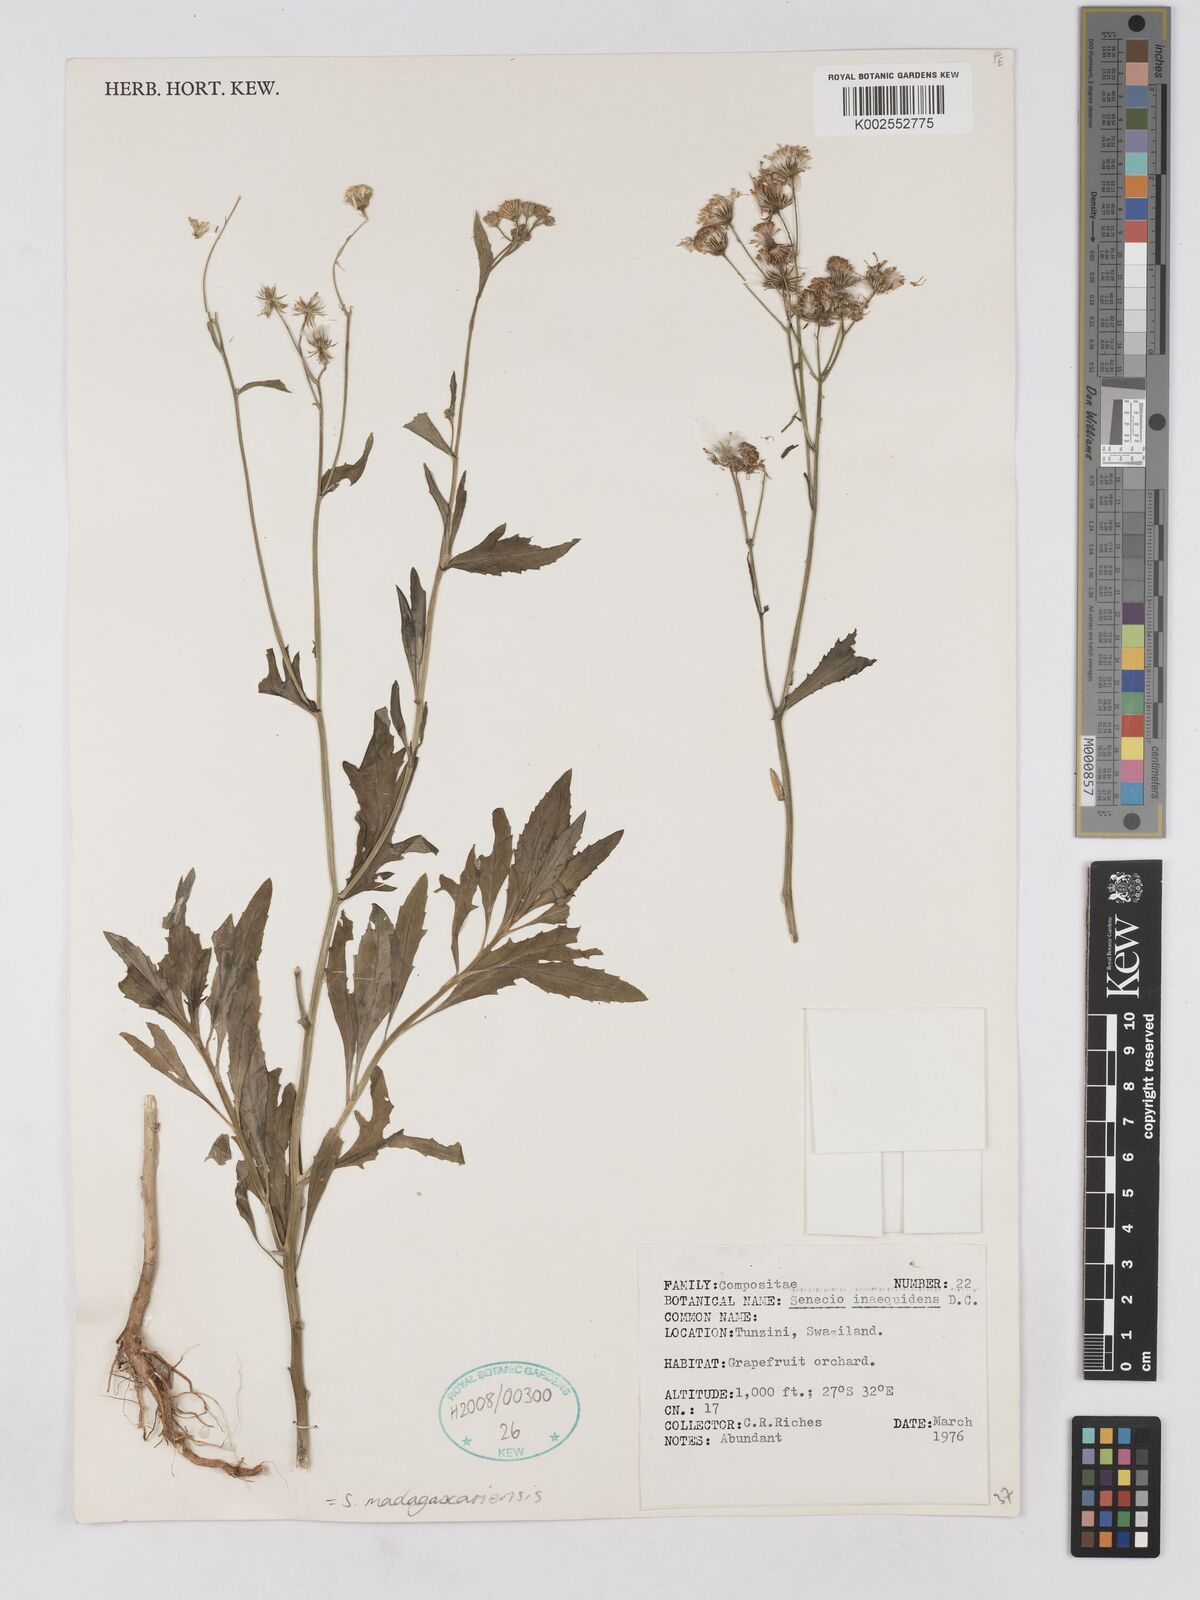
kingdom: Plantae
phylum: Tracheophyta
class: Magnoliopsida
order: Asterales
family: Asteraceae
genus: Senecio
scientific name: Senecio madagascariensis
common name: Madagascar ragwort
